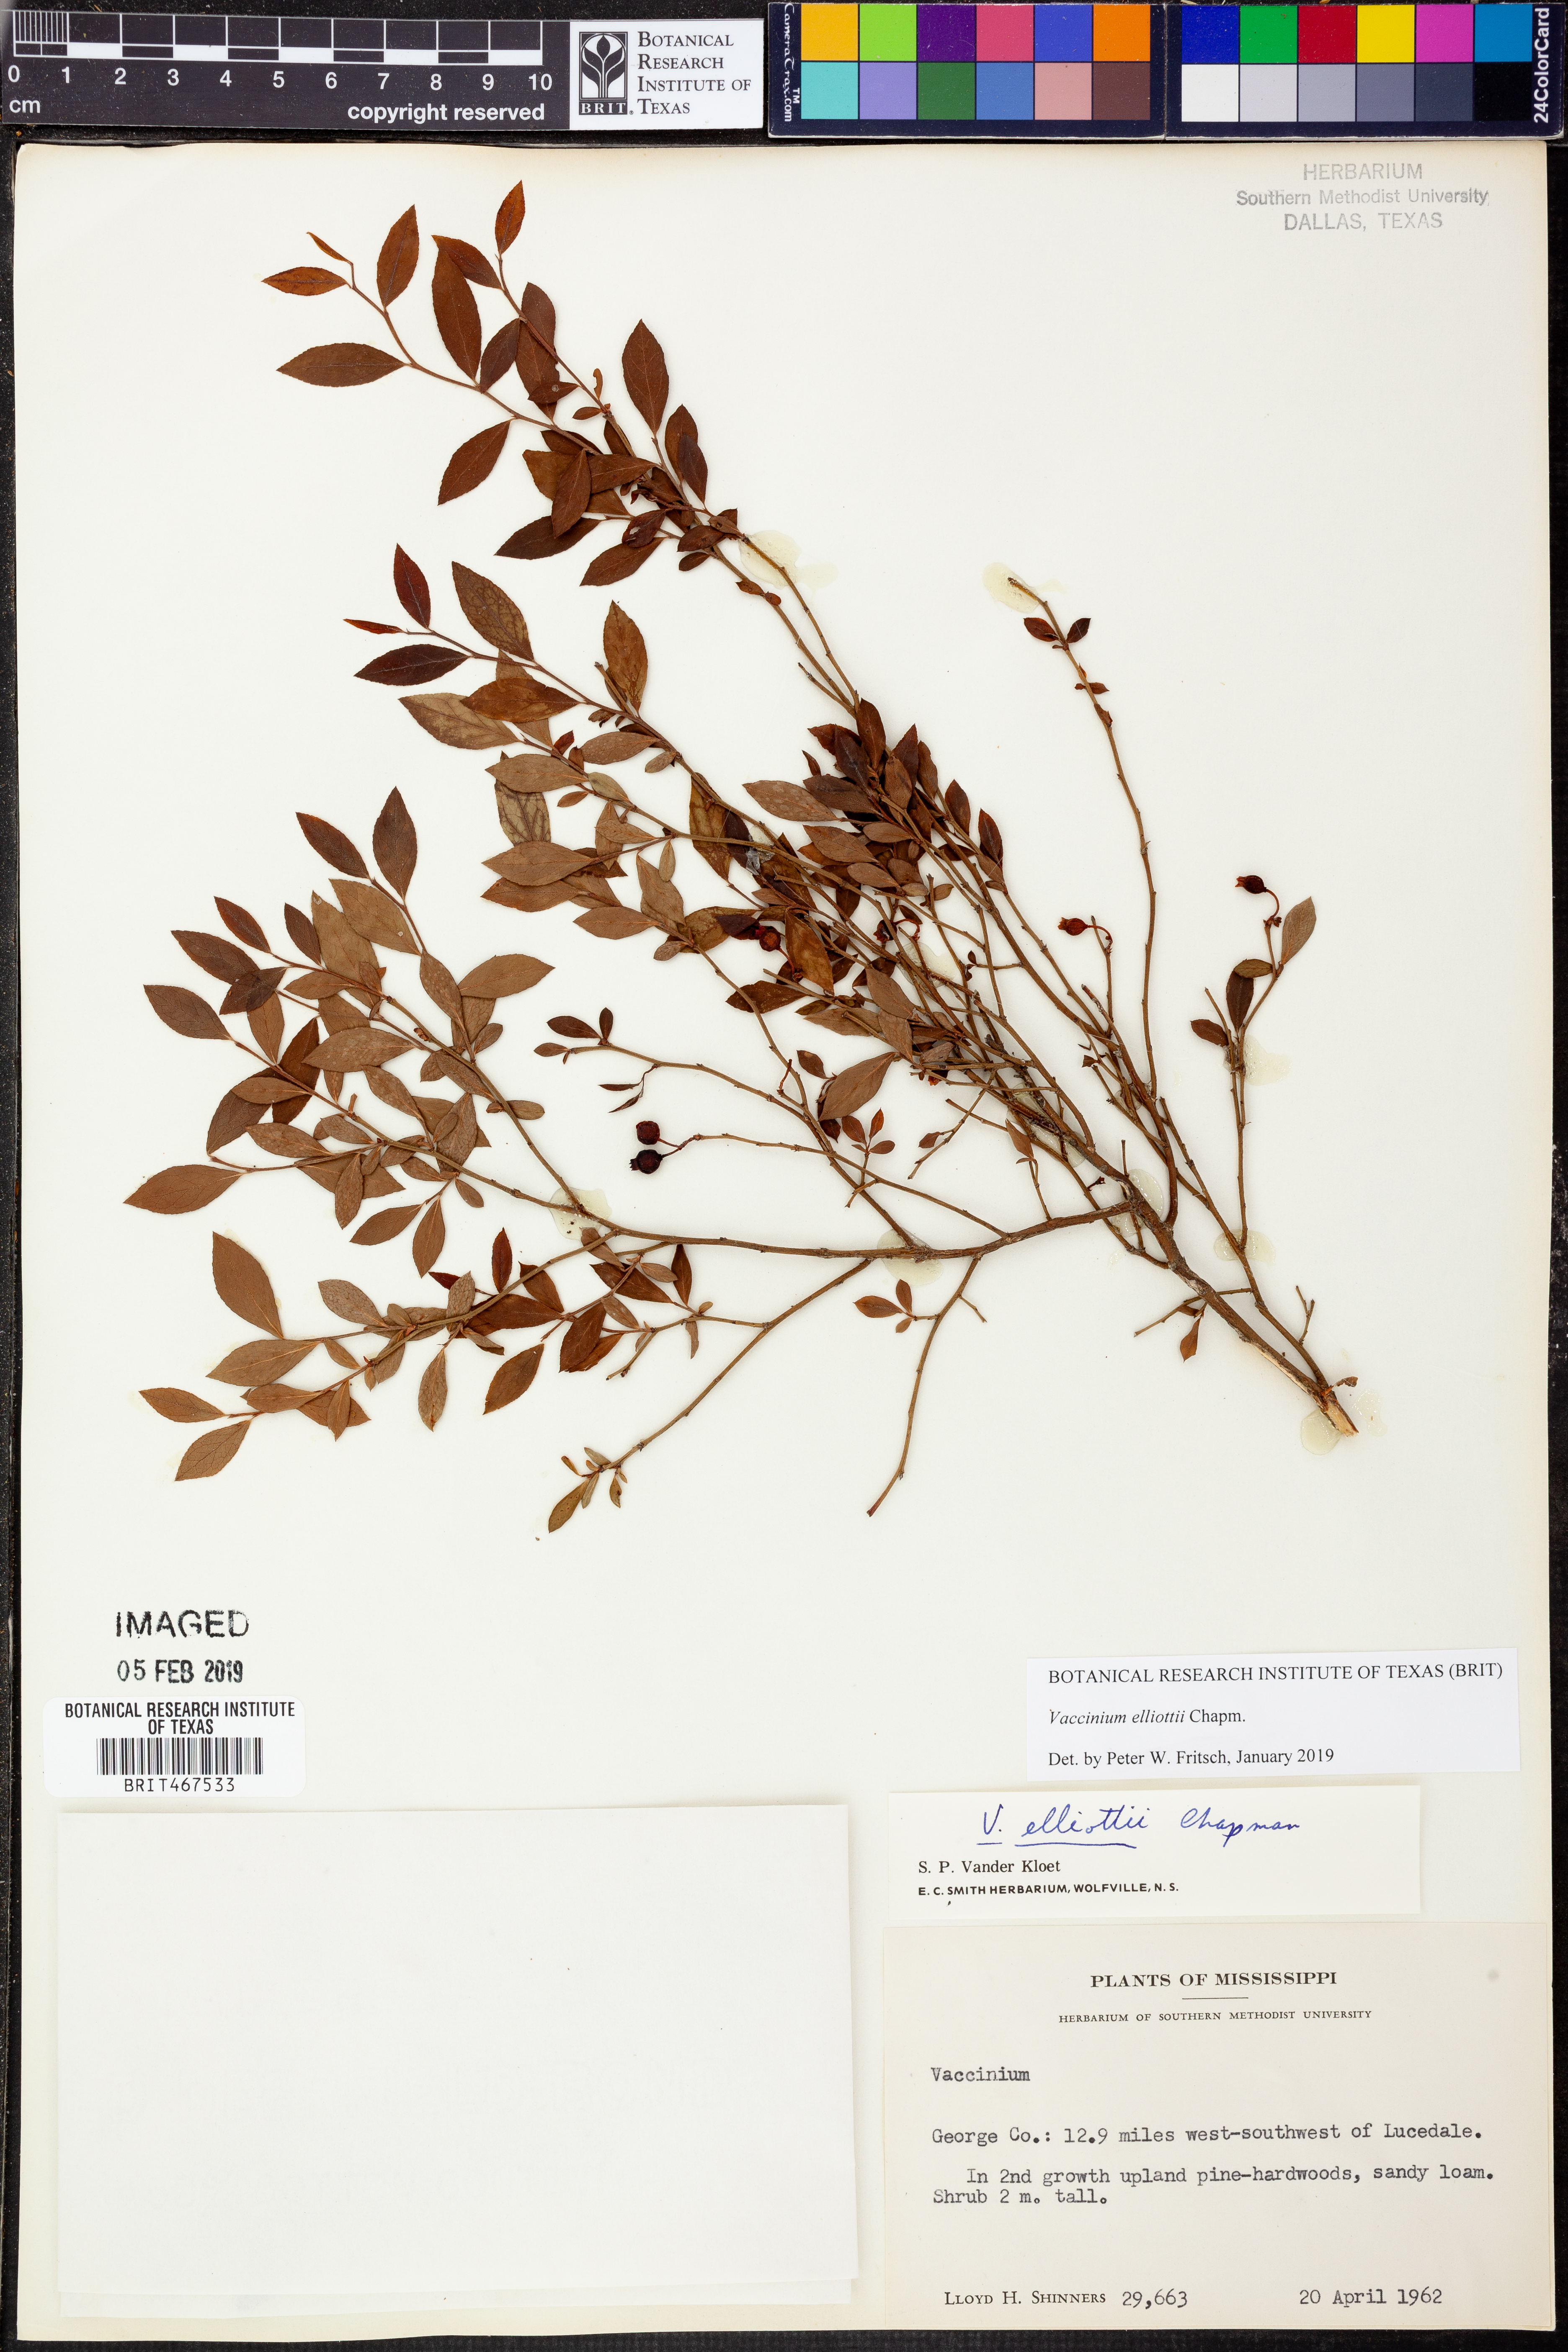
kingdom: Plantae
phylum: Tracheophyta
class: Magnoliopsida
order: Ericales
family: Ericaceae
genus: Vaccinium
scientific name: Vaccinium corymbosum
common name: Blueberry
